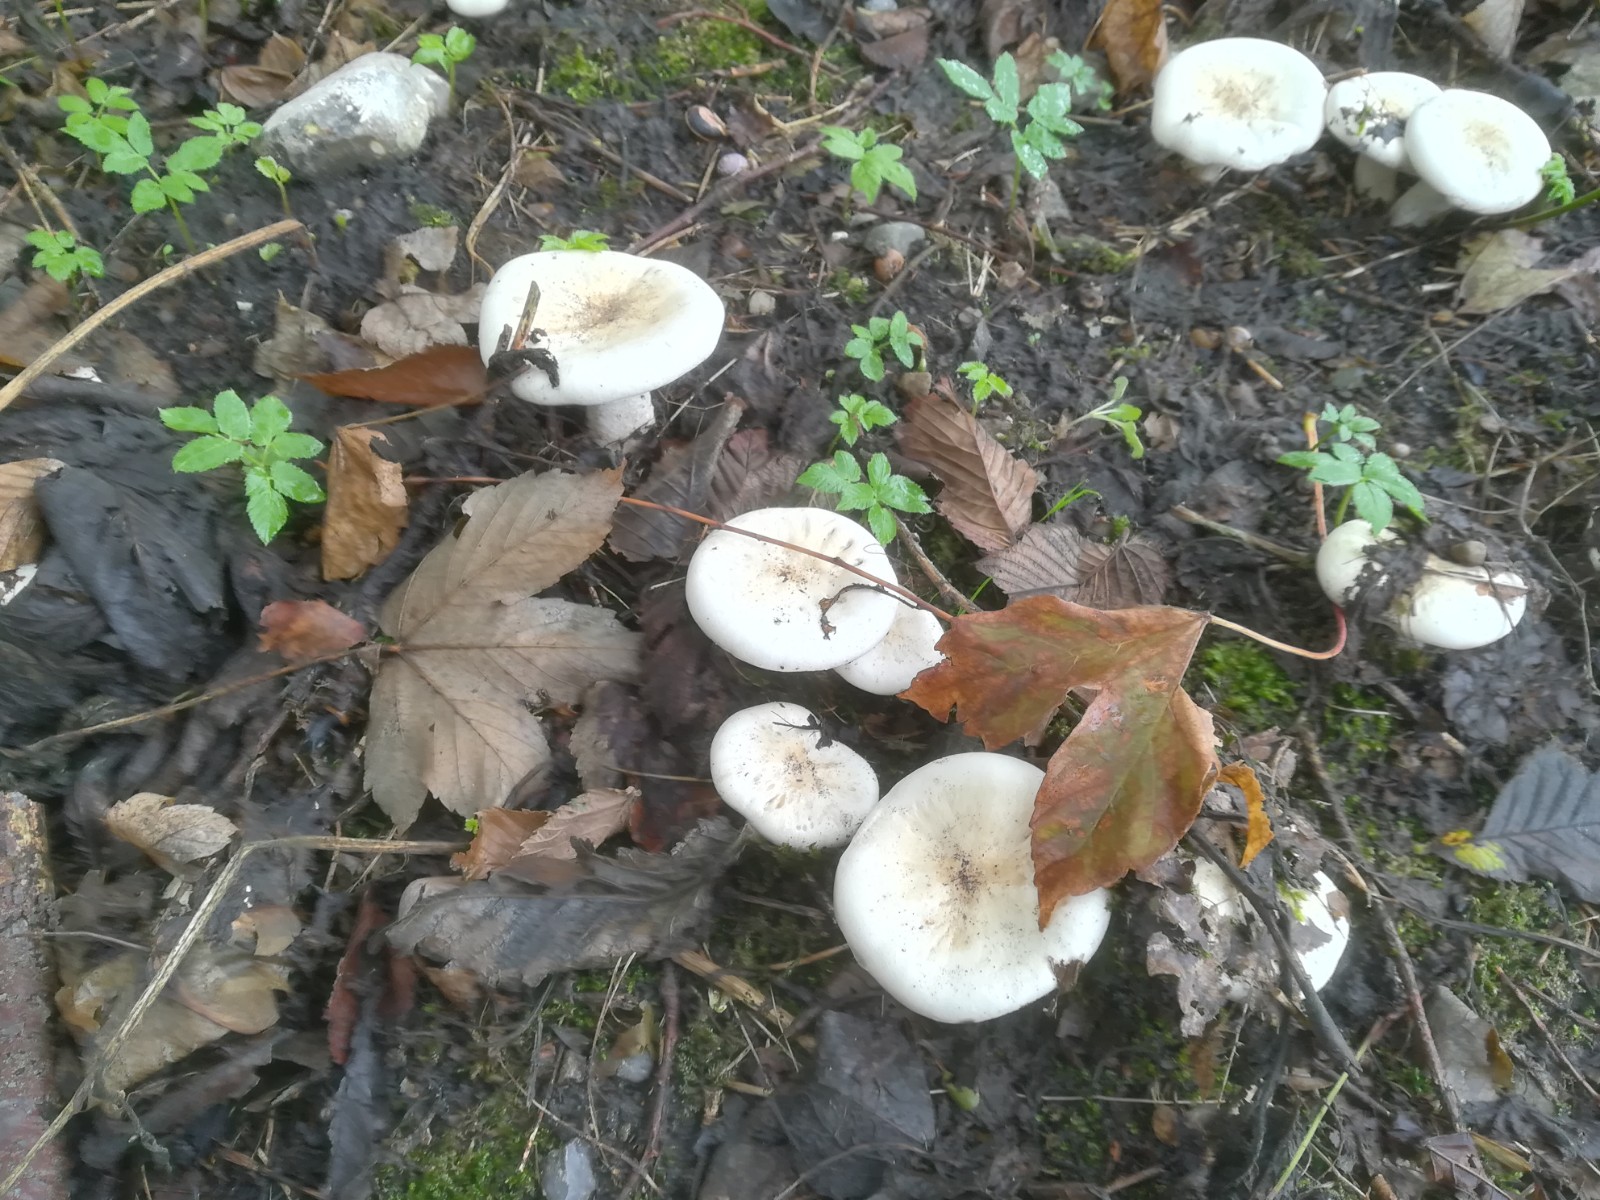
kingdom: Fungi
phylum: Basidiomycota
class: Agaricomycetes
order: Agaricales
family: Tricholomataceae
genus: Aspropaxillus
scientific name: Aspropaxillus giganteus
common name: kæmpe-tragtridderhat
